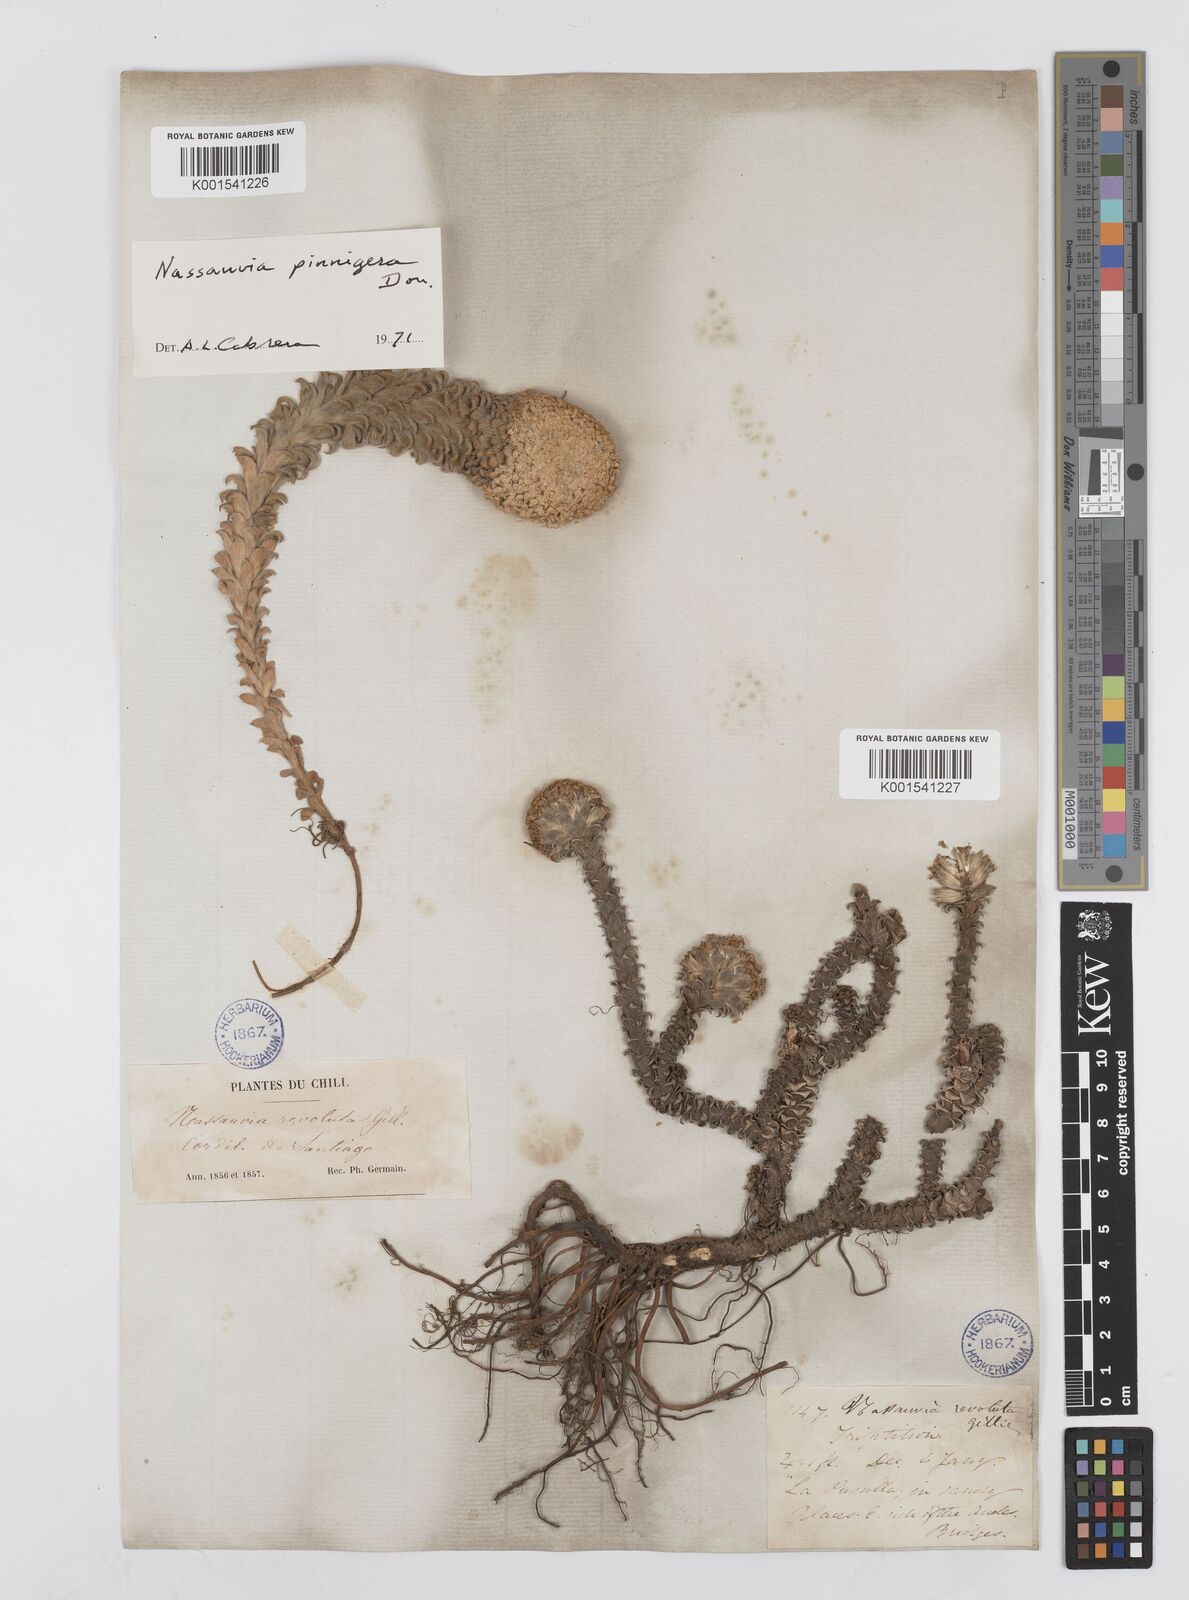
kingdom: Plantae
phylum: Tracheophyta
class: Magnoliopsida
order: Asterales
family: Asteraceae
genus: Nassauvia
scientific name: Nassauvia pinnigera
